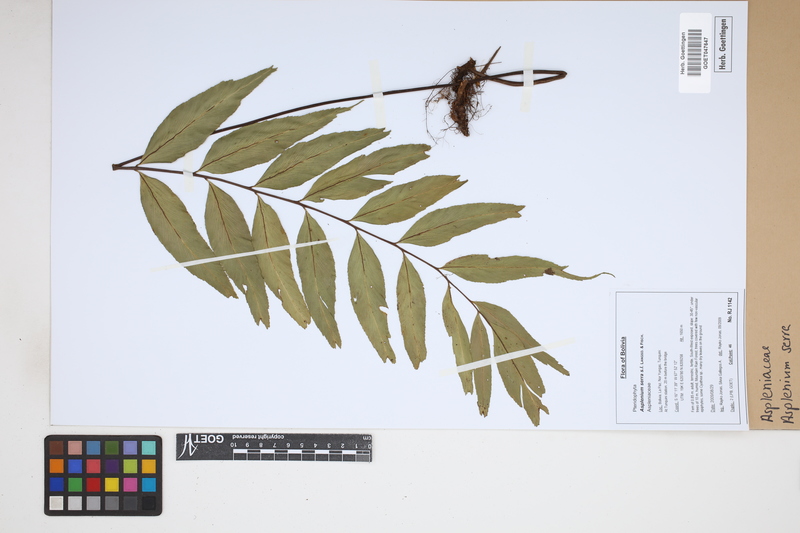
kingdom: Plantae
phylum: Tracheophyta
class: Polypodiopsida
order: Polypodiales
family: Aspleniaceae
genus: Asplenium
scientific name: Asplenium serra
